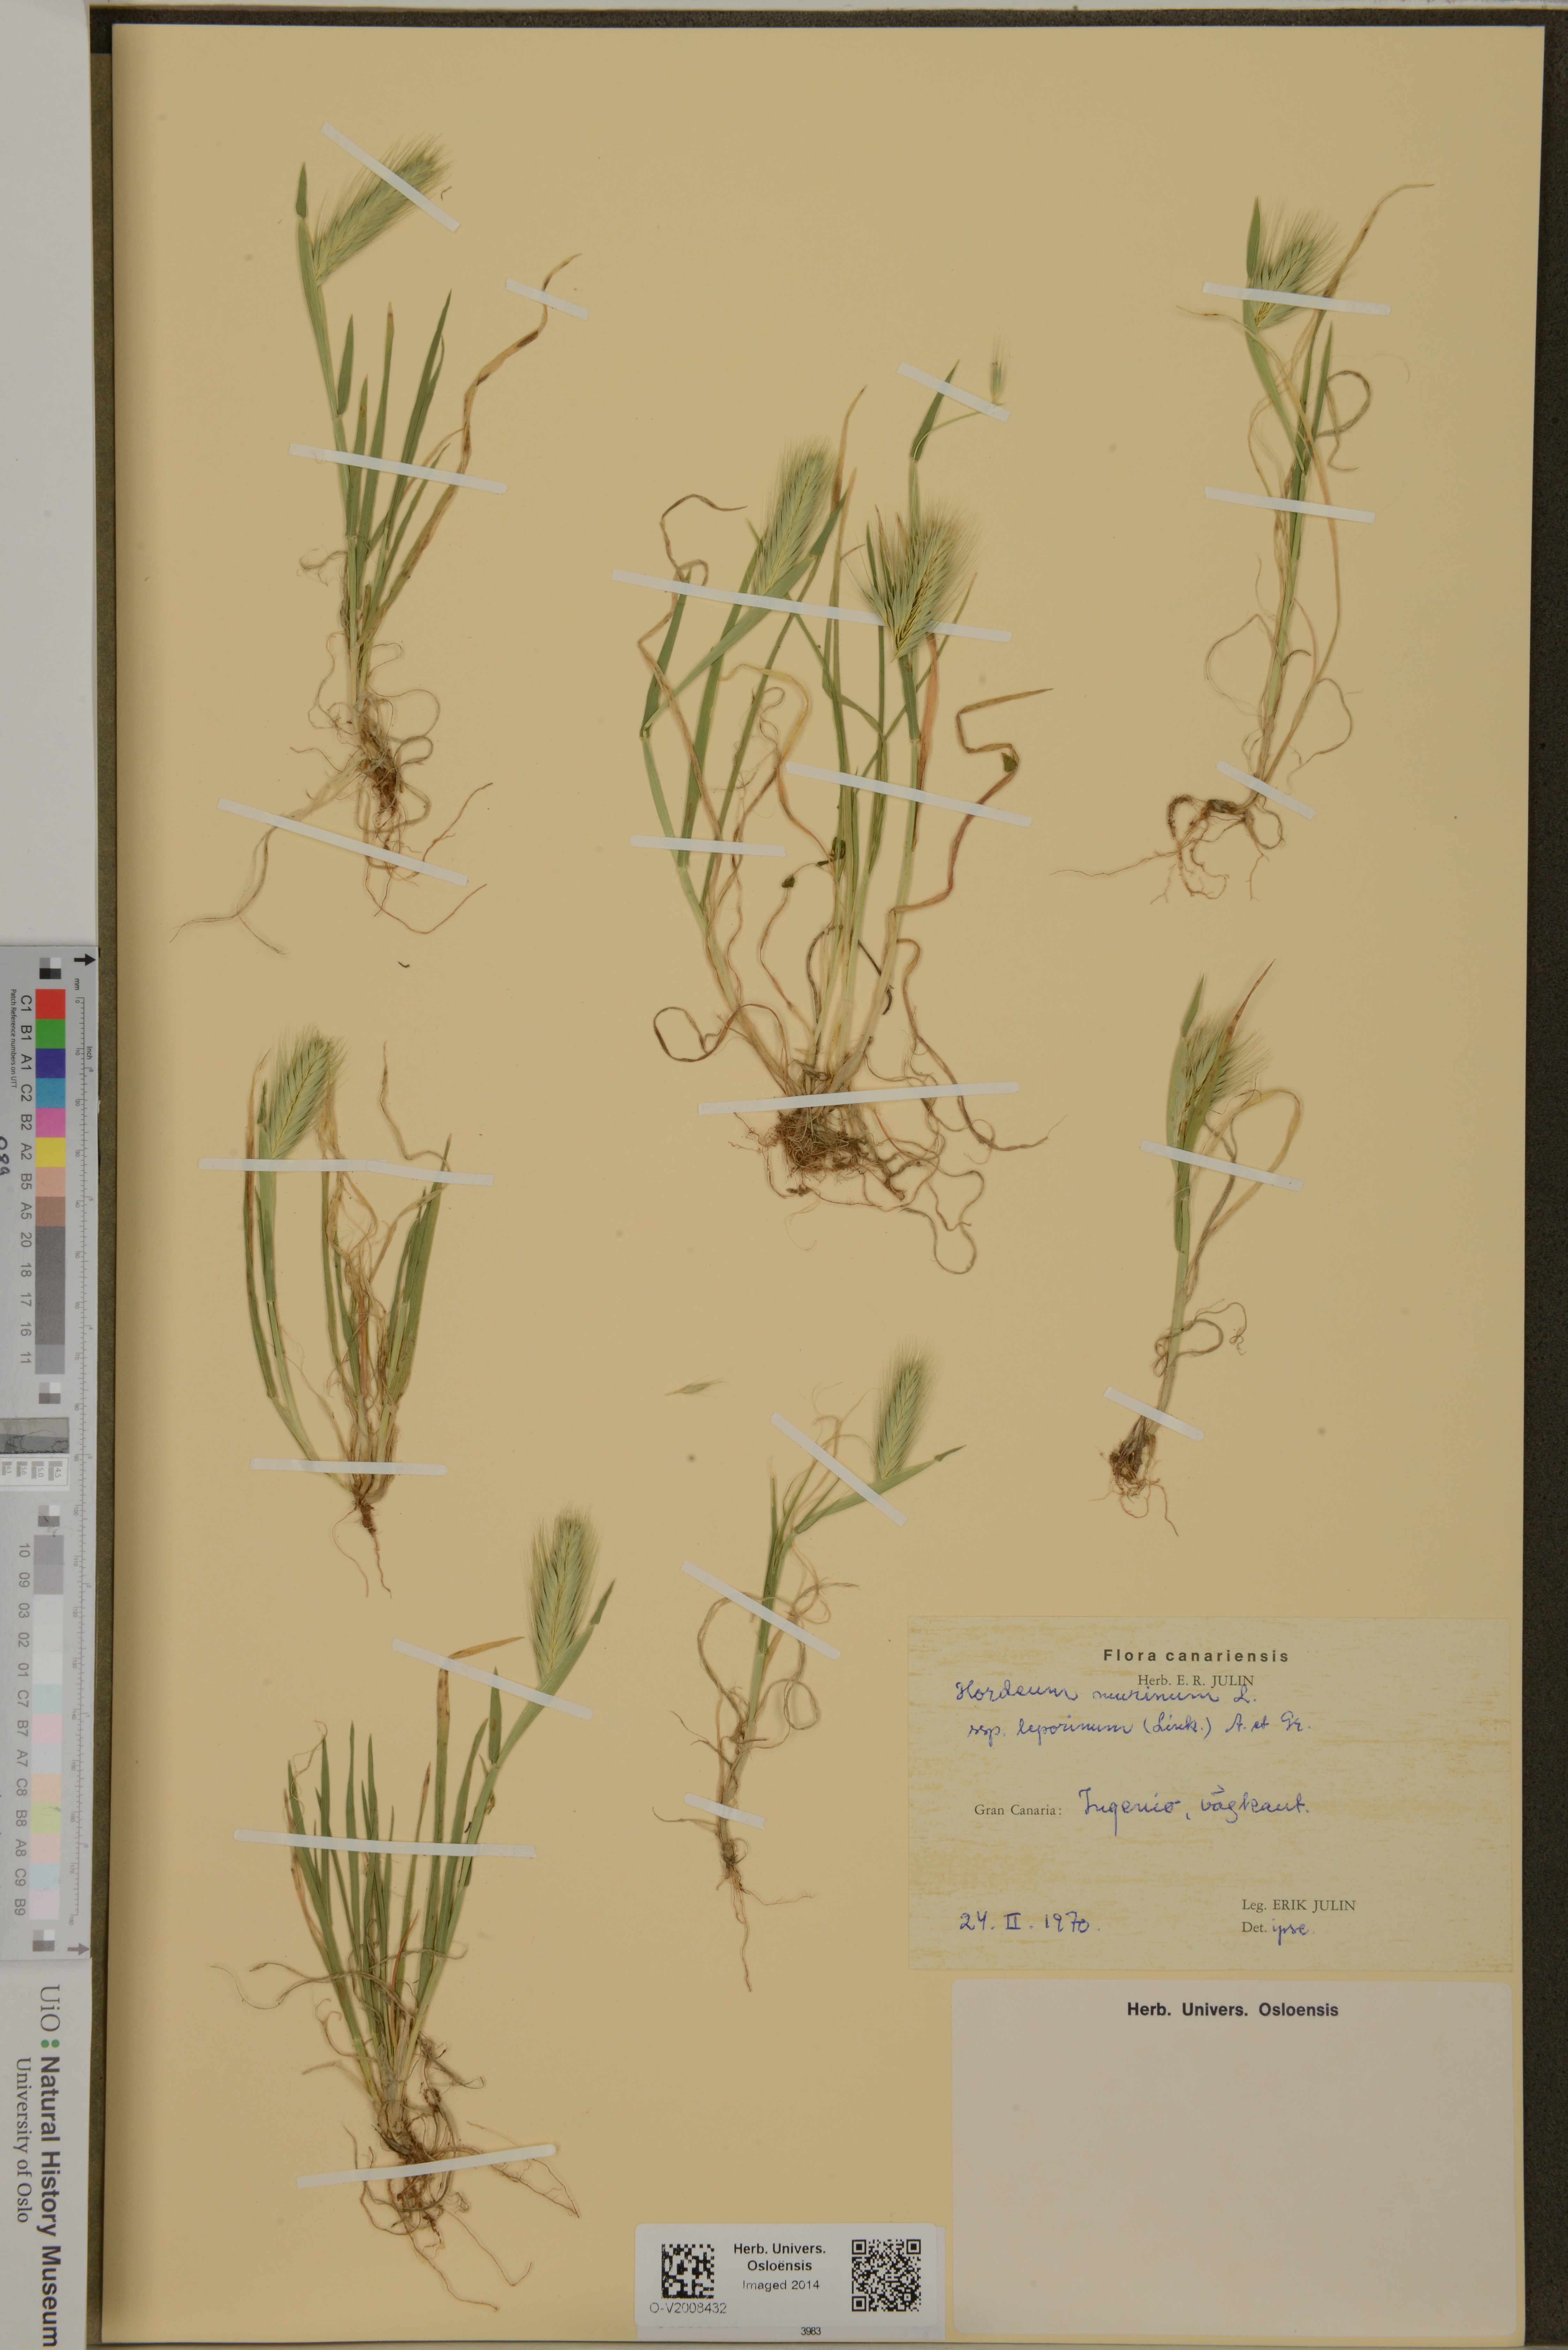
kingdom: Plantae
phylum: Tracheophyta
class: Liliopsida
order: Poales
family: Poaceae
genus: Hordeum
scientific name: Hordeum murinum
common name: Wall barley
